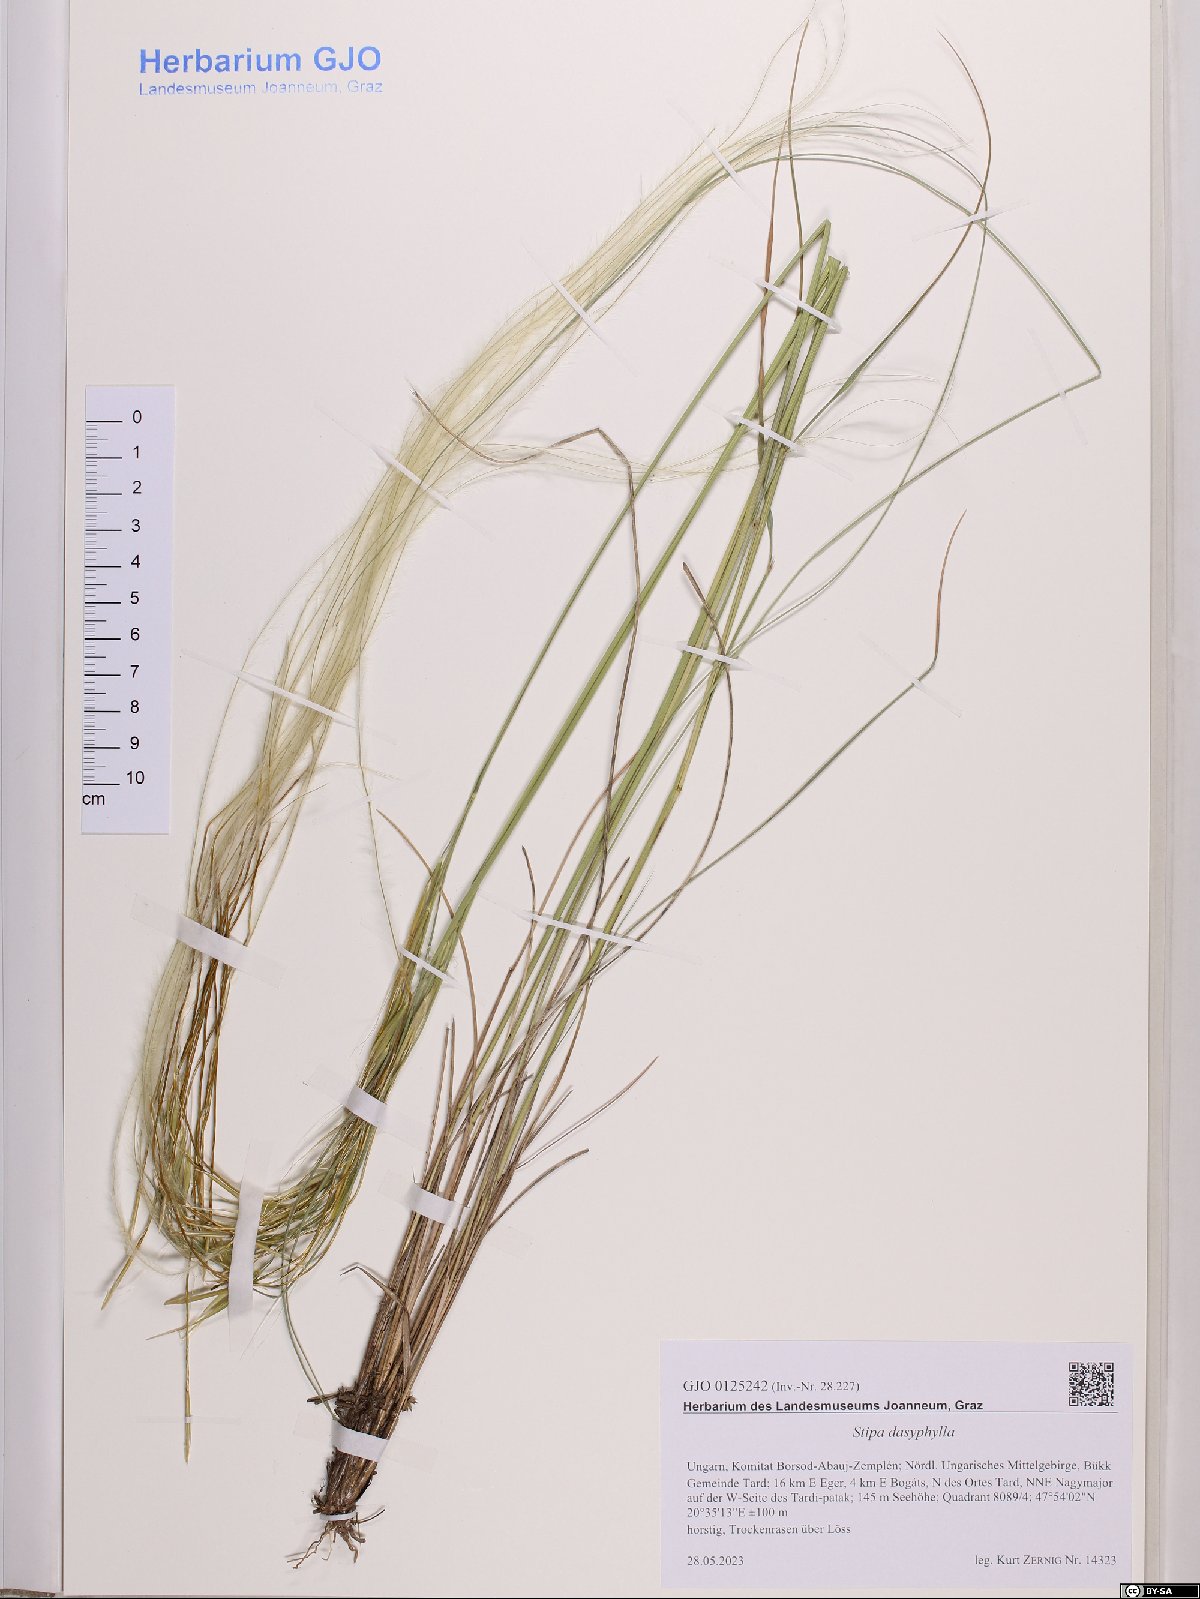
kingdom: Plantae
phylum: Tracheophyta
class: Liliopsida
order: Poales
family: Poaceae
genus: Stipa
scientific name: Stipa dasyphylla
